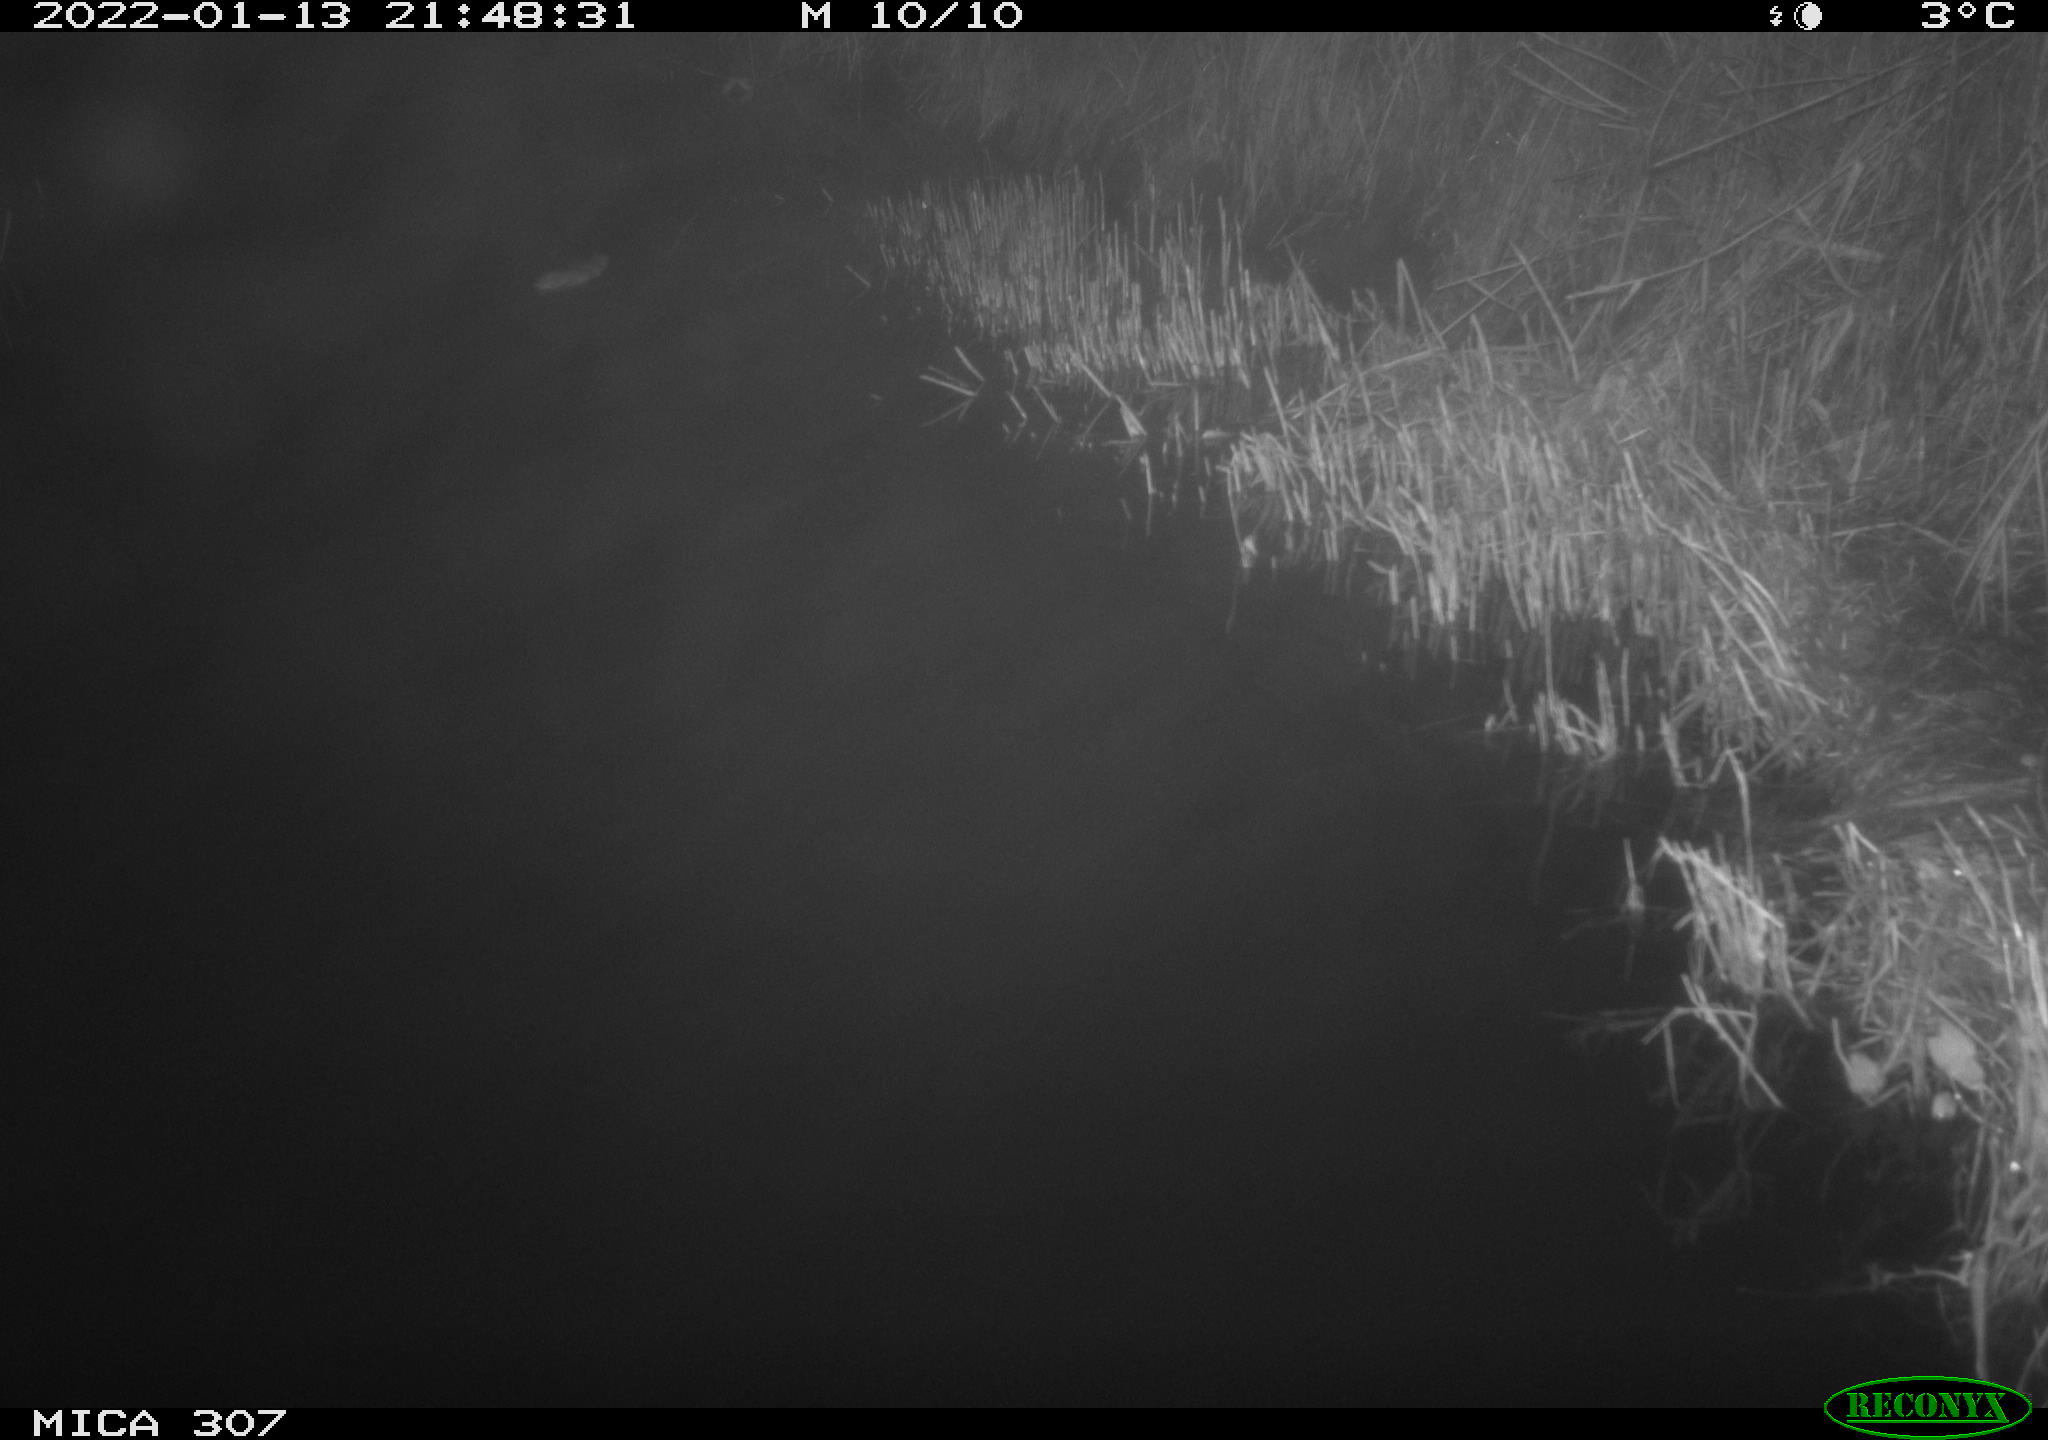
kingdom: Animalia
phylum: Chordata
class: Mammalia
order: Rodentia
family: Muridae
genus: Rattus
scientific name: Rattus norvegicus
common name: Brown rat
